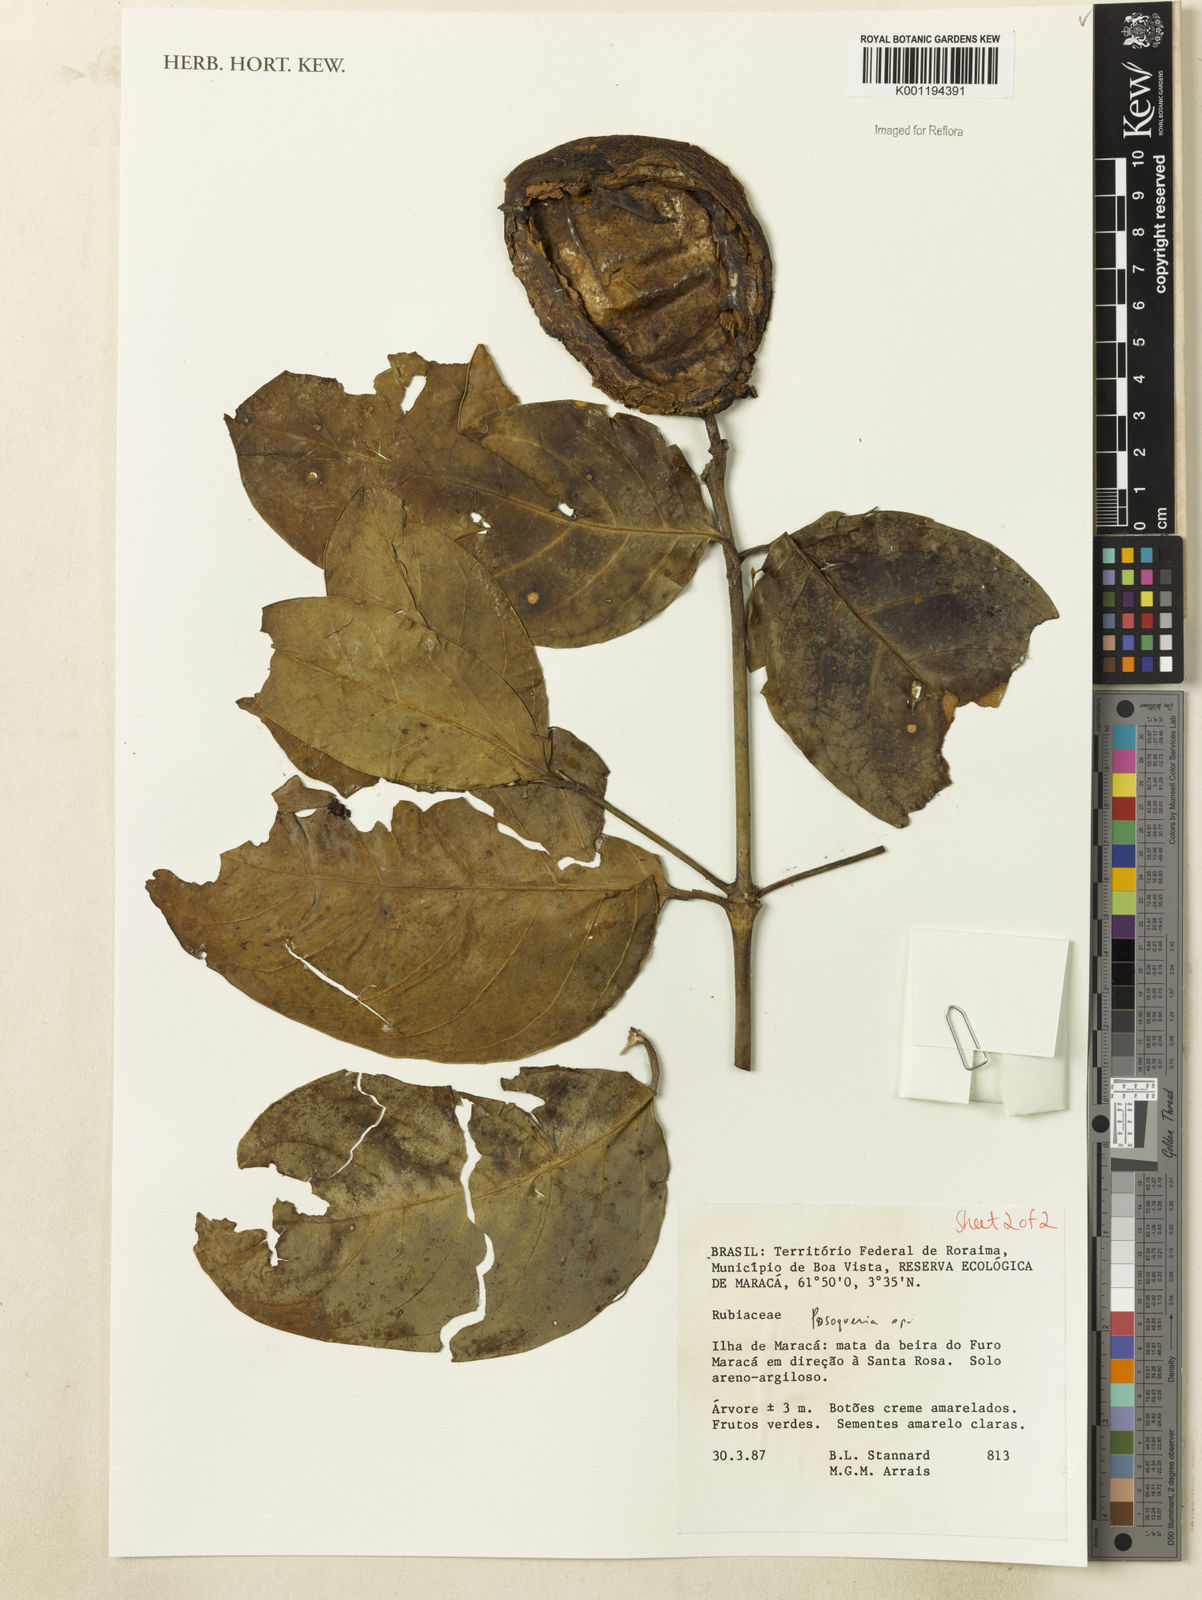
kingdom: Plantae
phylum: Tracheophyta
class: Magnoliopsida
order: Gentianales
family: Rubiaceae
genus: Posoqueria
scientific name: Posoqueria
